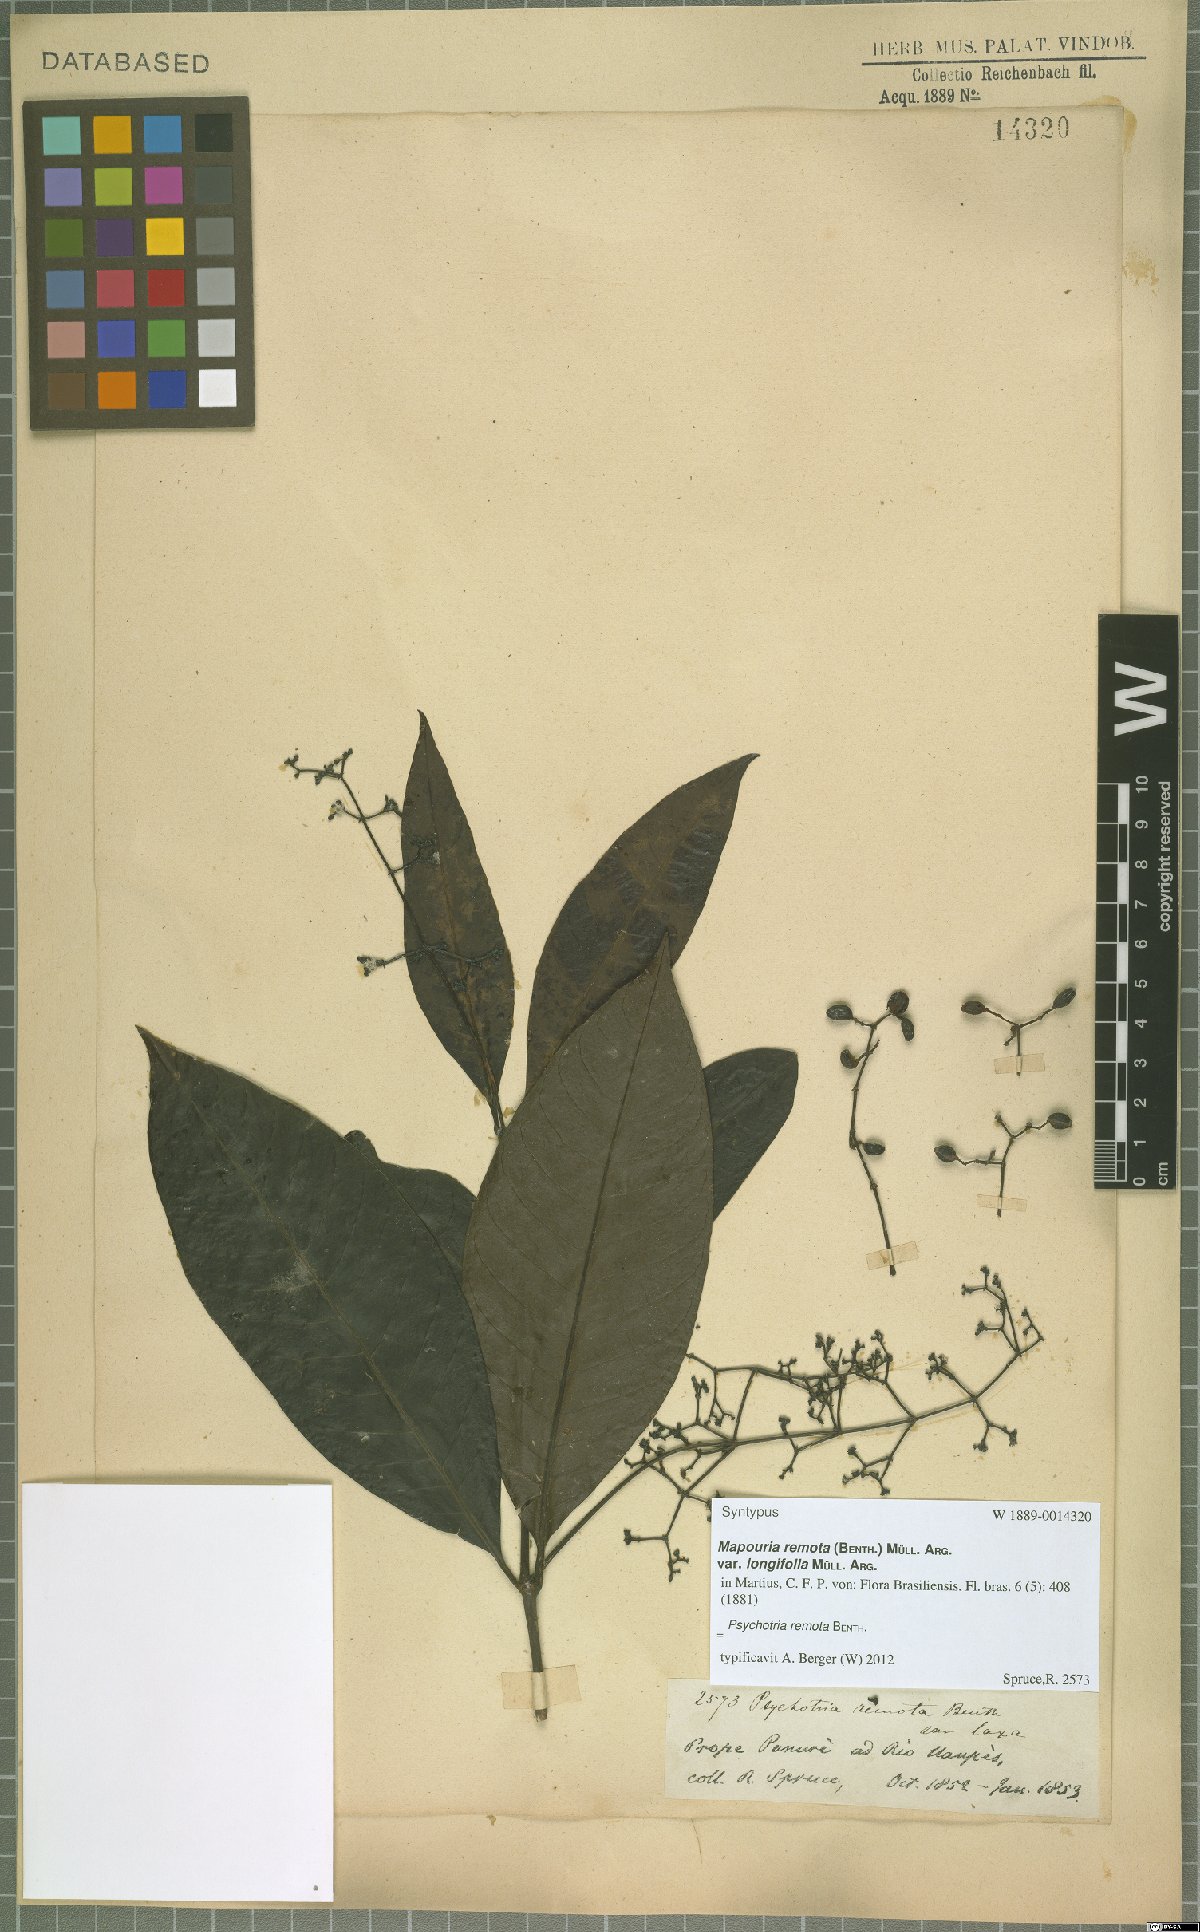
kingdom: Plantae
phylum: Tracheophyta
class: Magnoliopsida
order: Gentianales
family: Rubiaceae
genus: Psychotria
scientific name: Psychotria remota
